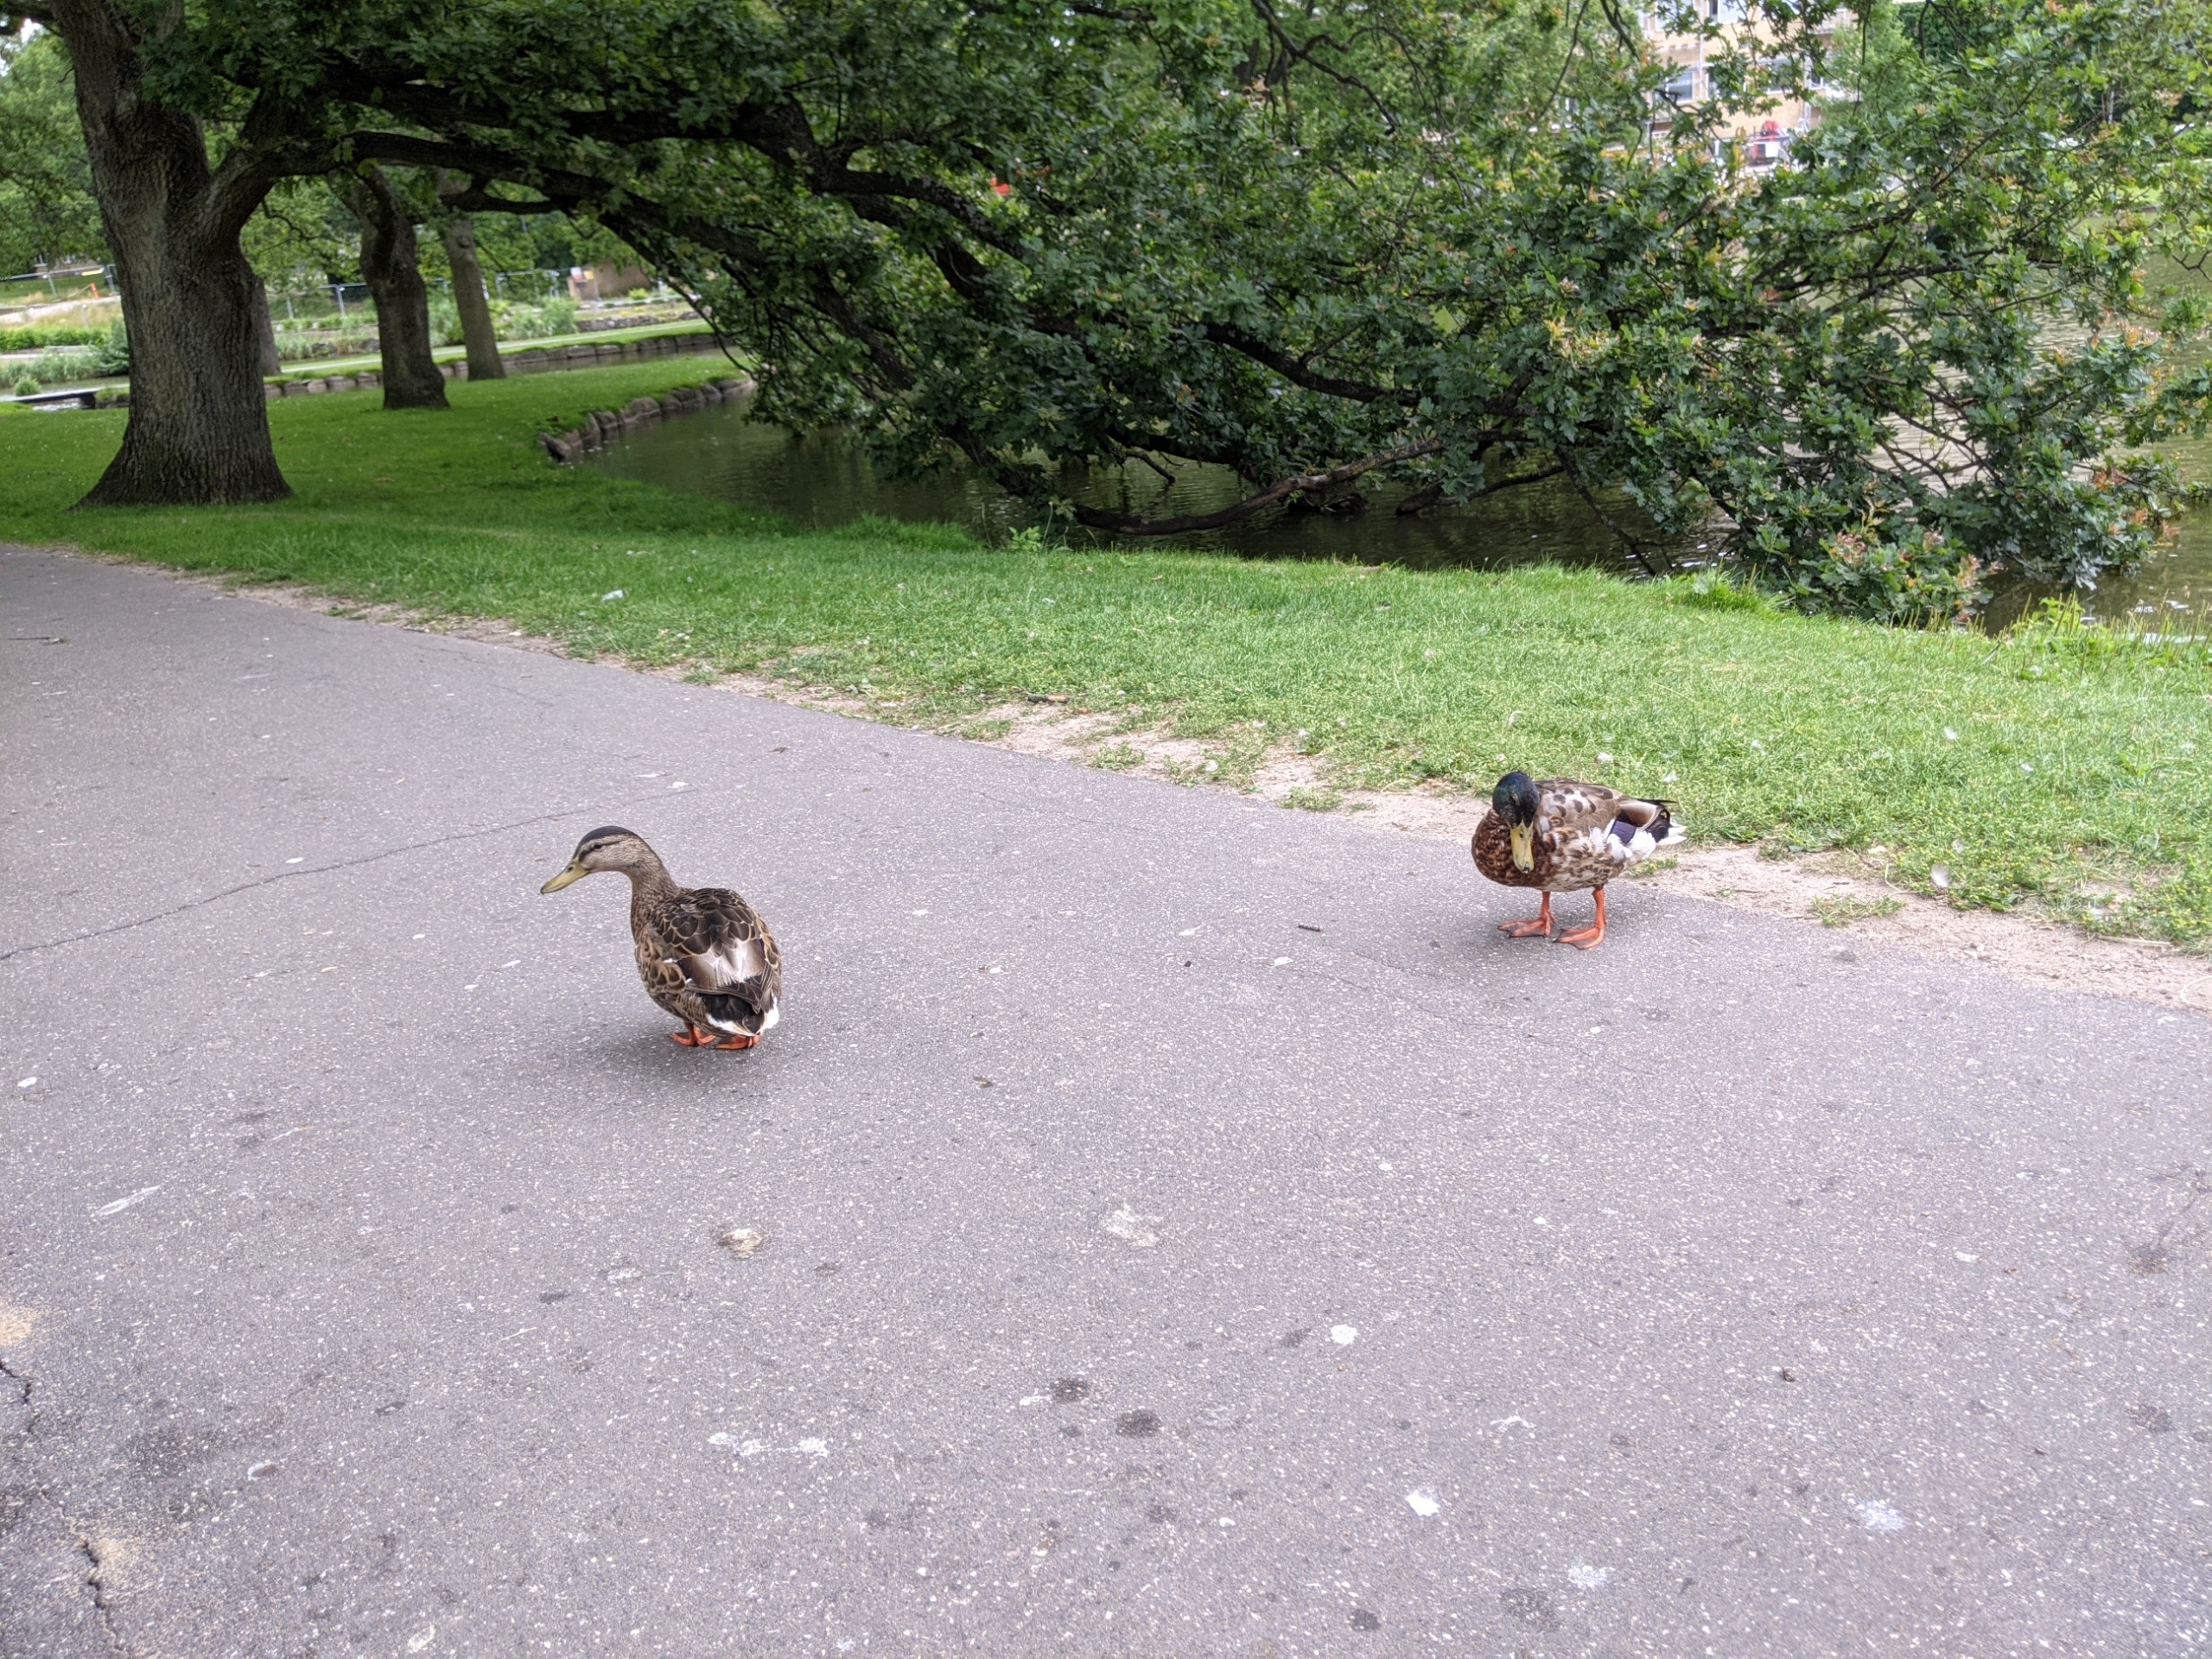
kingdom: Animalia
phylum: Chordata
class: Aves
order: Anseriformes
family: Anatidae
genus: Anas
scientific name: Anas platyrhynchos
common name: Gråand
